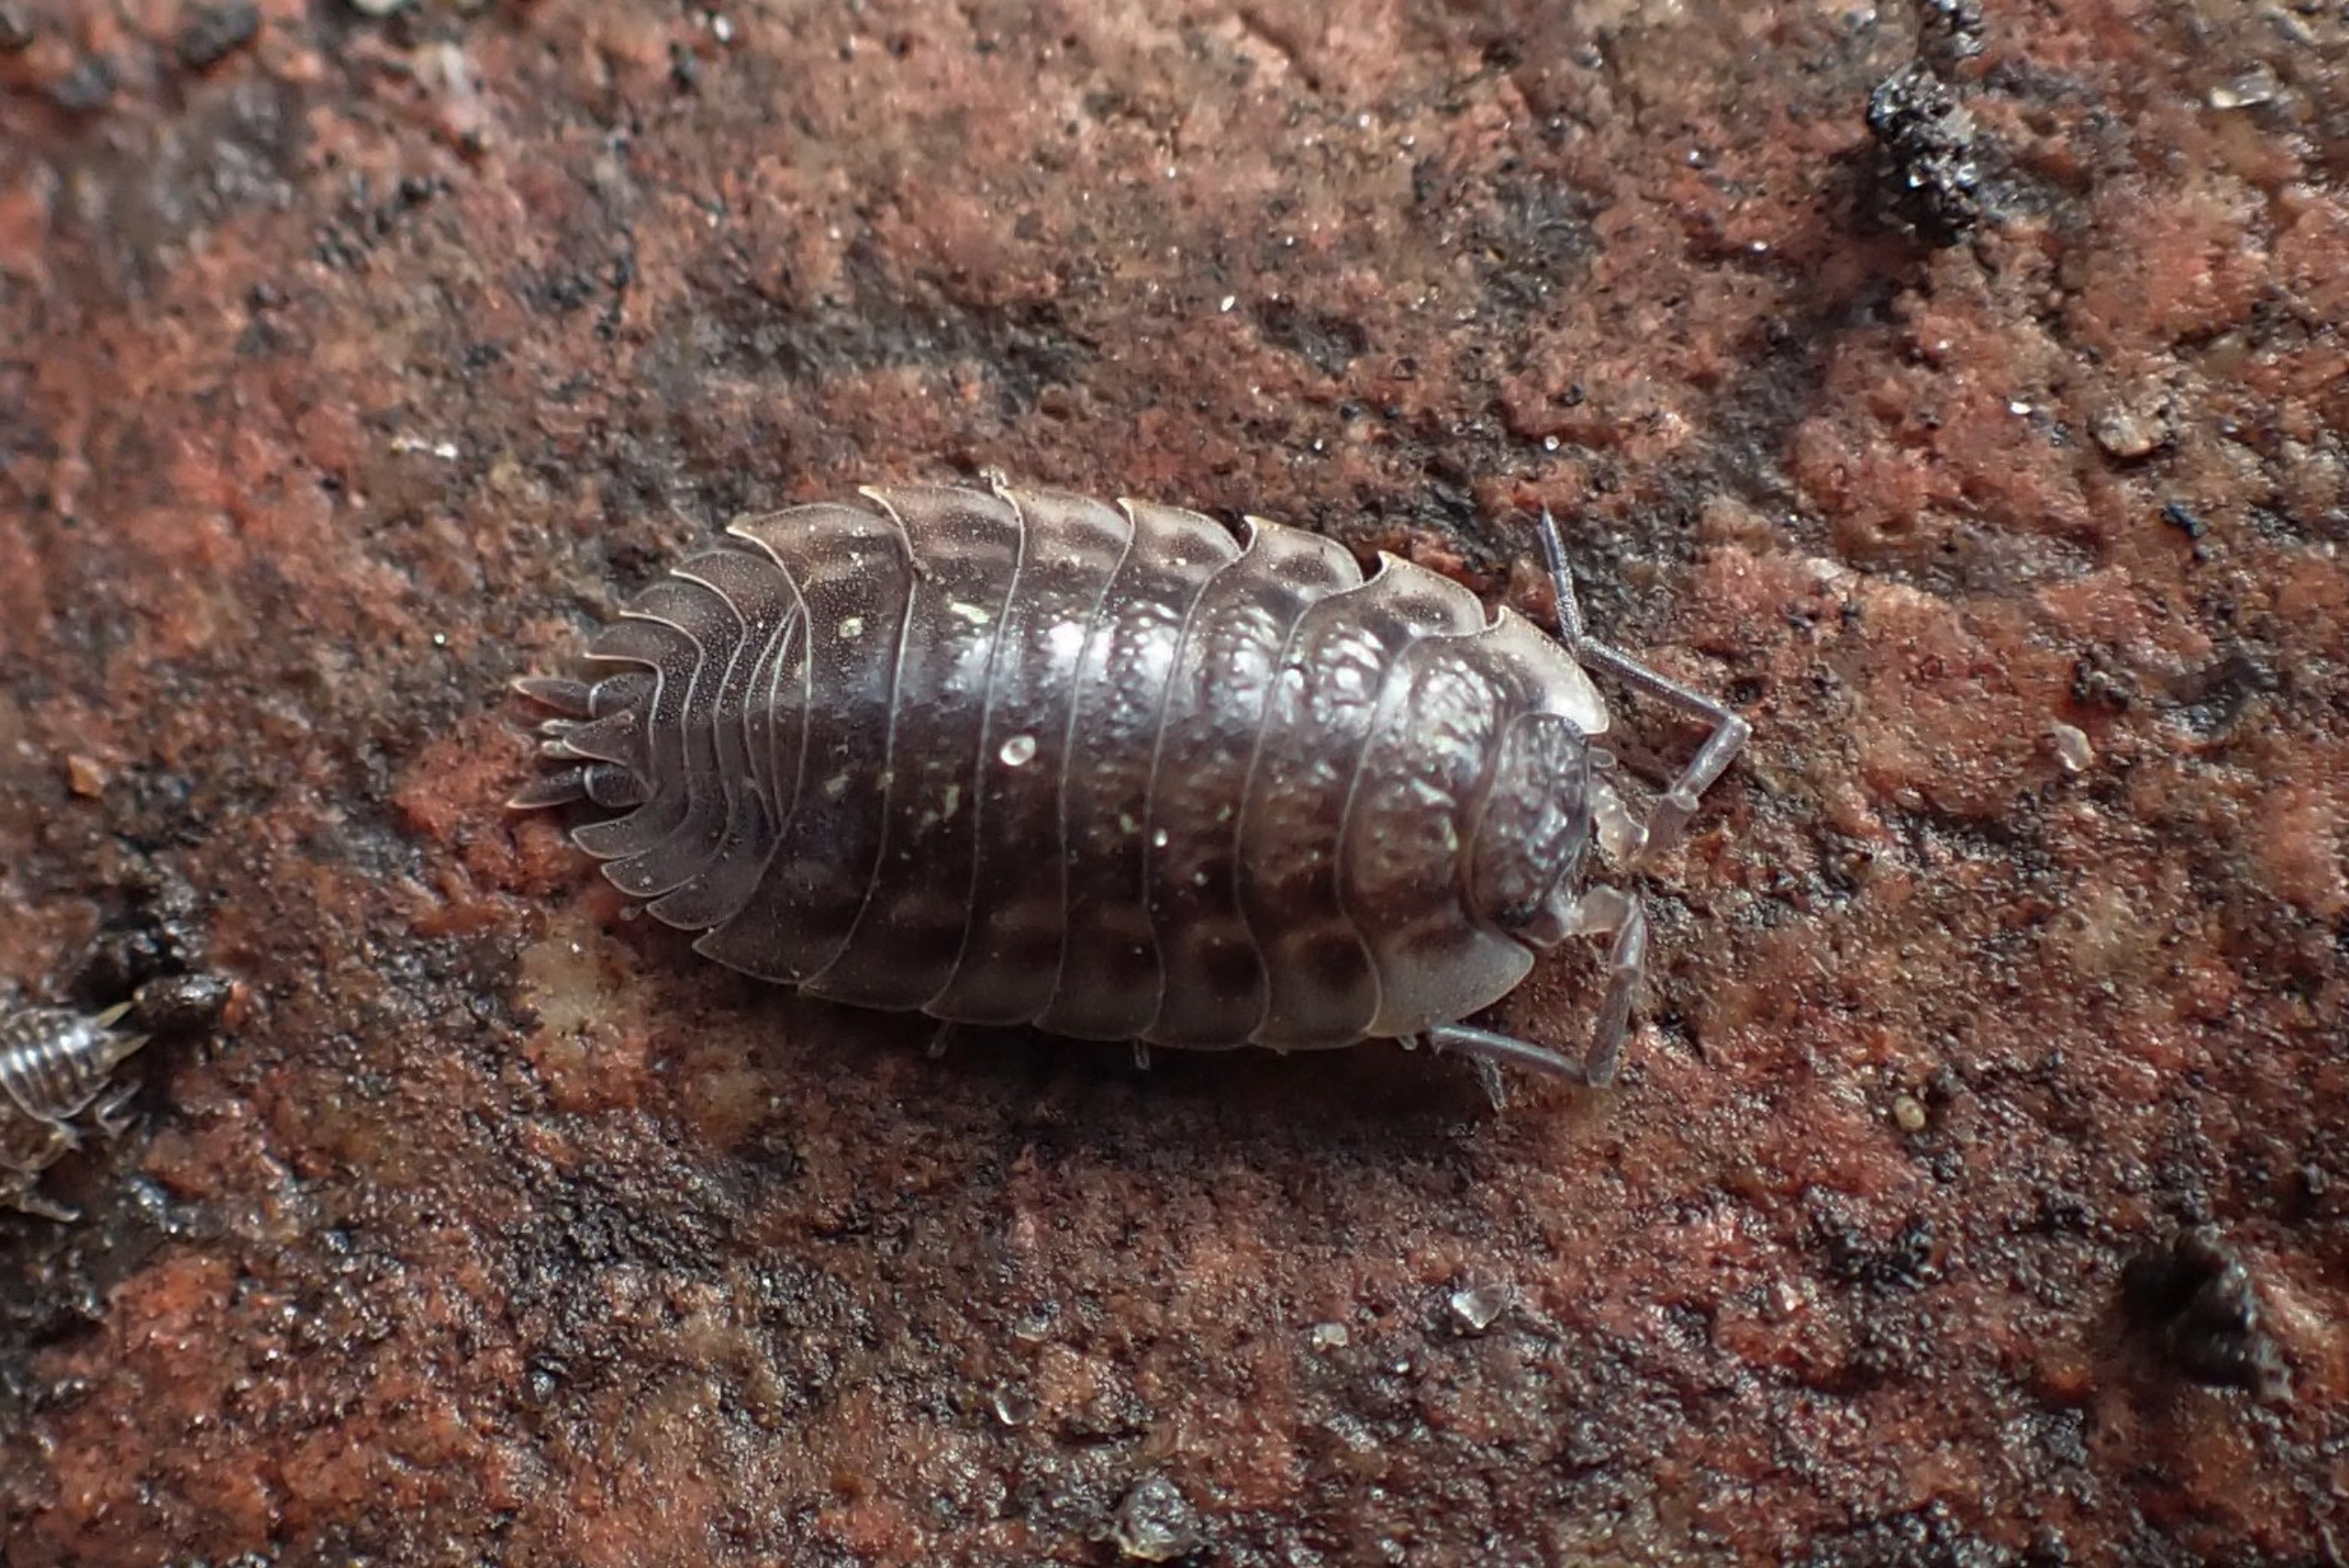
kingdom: Animalia
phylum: Arthropoda
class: Malacostraca
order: Isopoda
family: Oniscidae
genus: Oniscus
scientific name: Oniscus asellus
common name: Glat bænkebider
